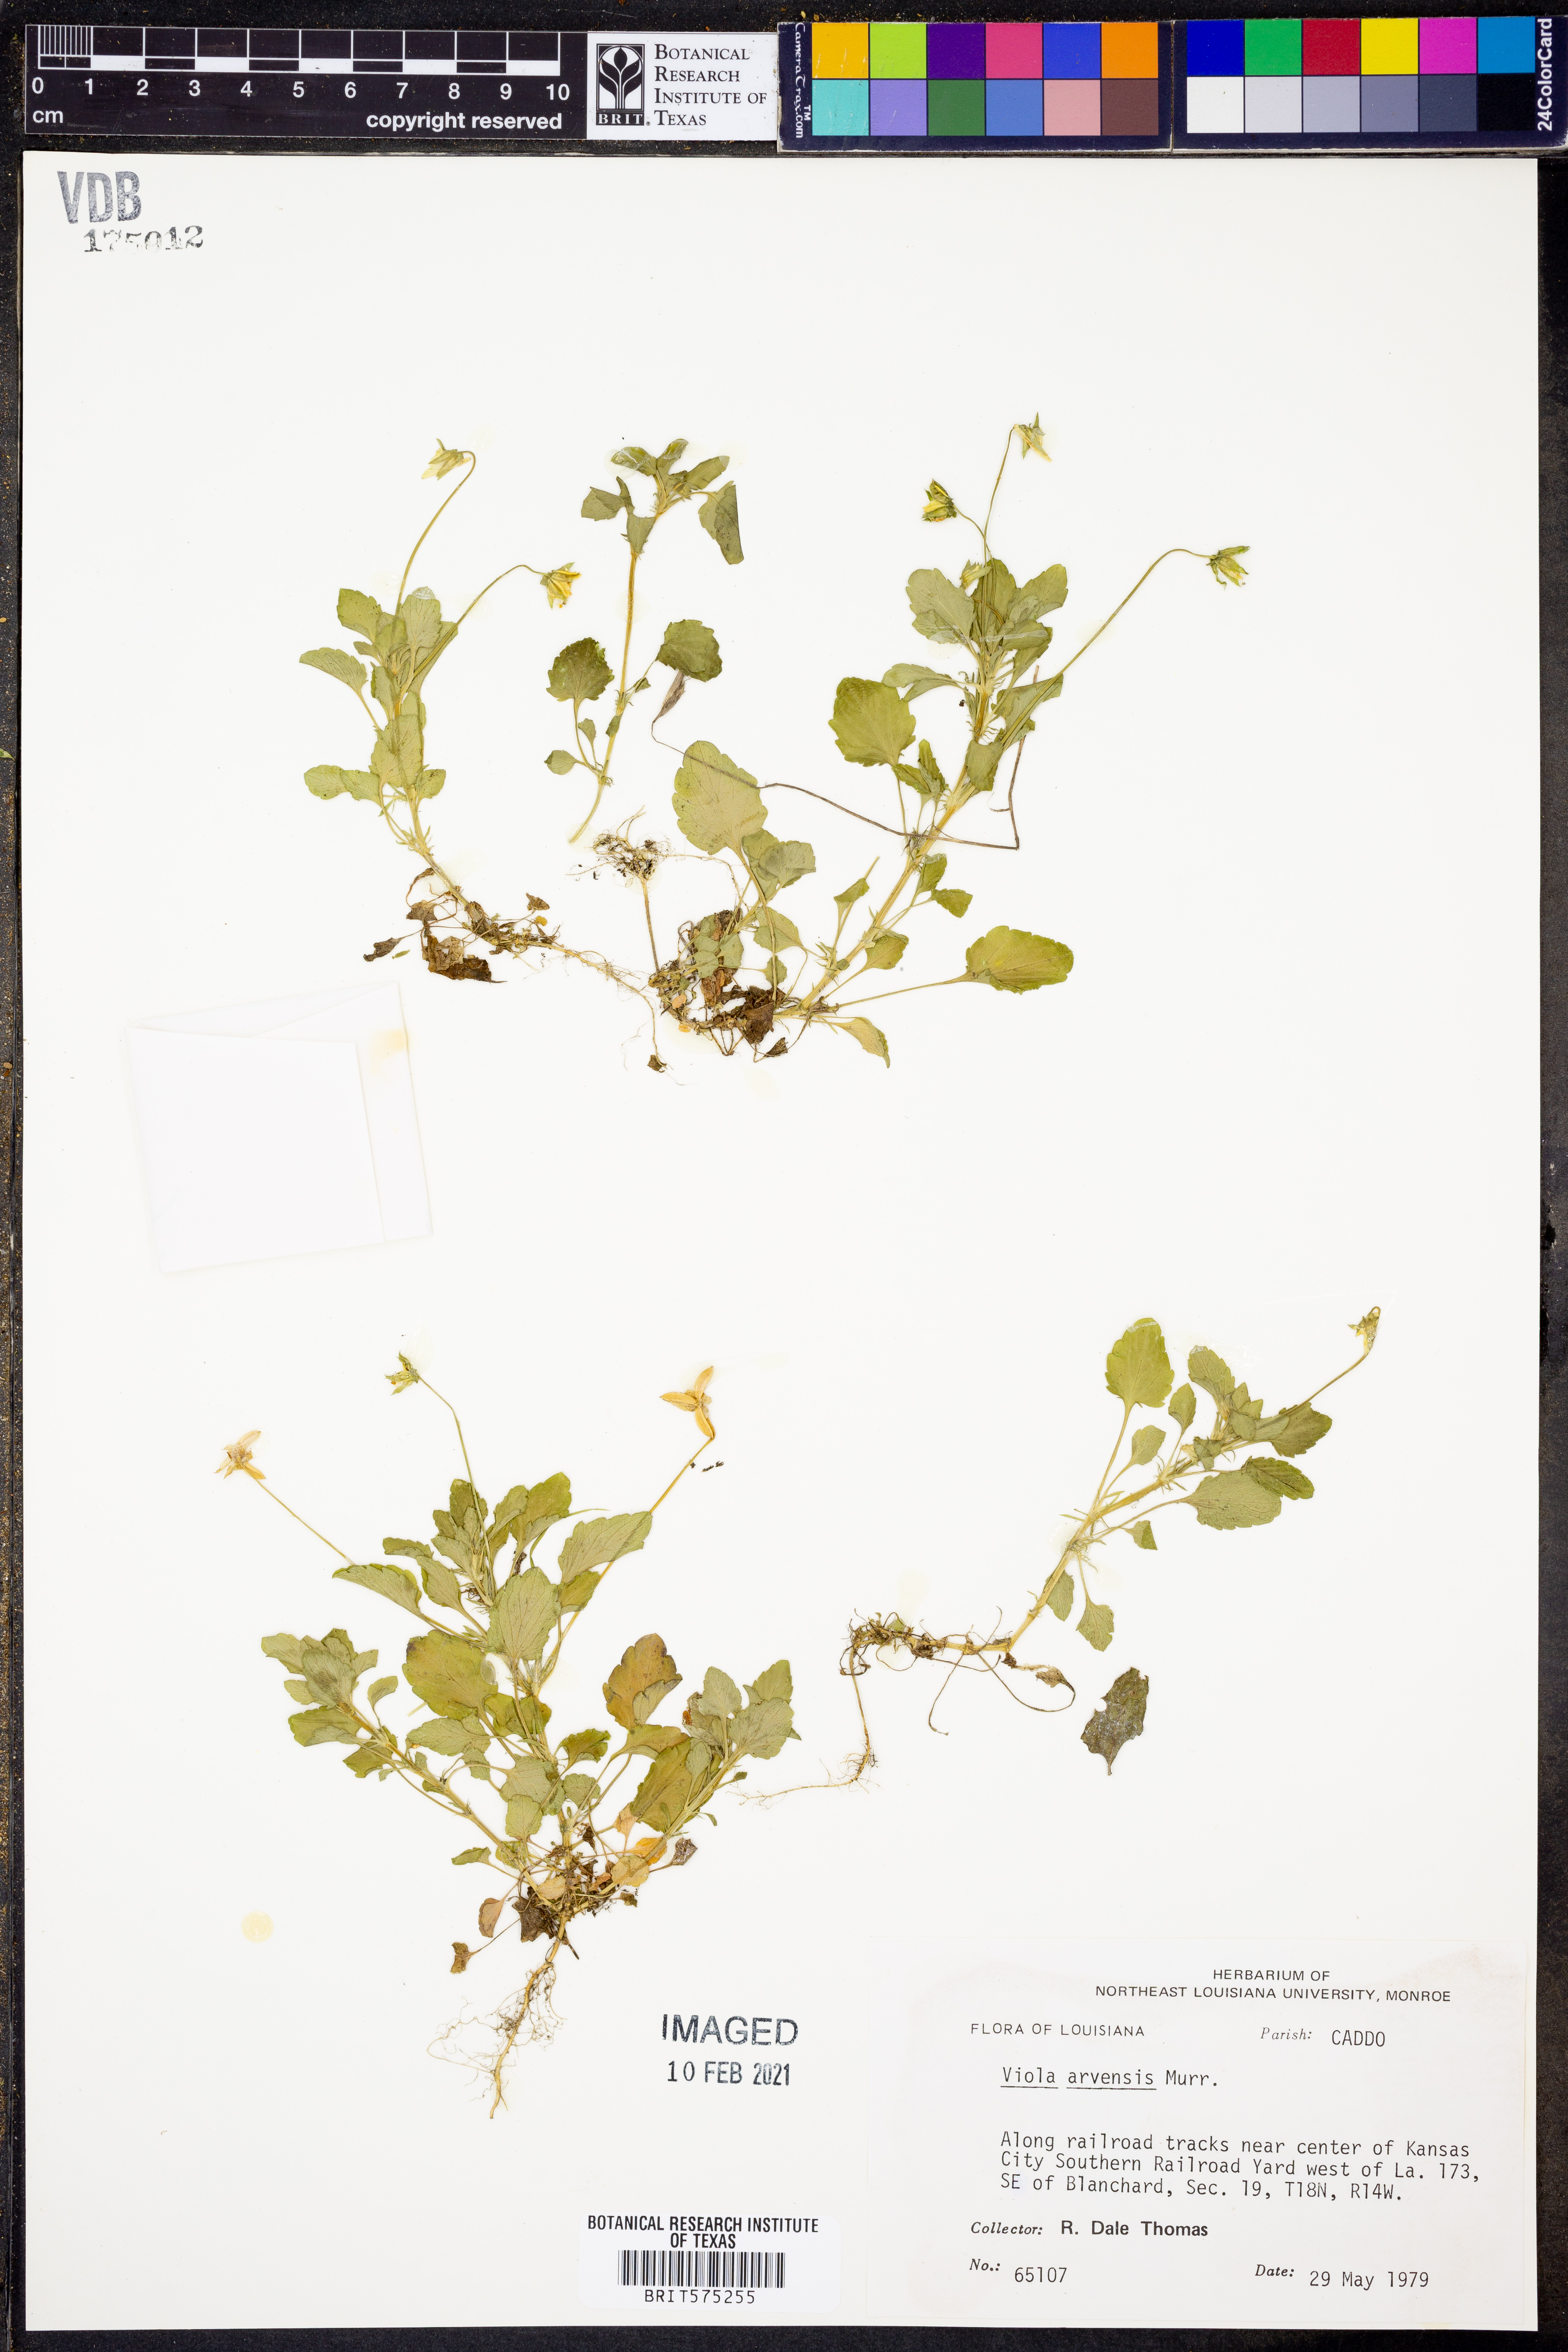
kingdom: Plantae
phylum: Tracheophyta
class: Magnoliopsida
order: Malpighiales
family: Violaceae
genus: Viola
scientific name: Viola arvensis
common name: Field pansy
